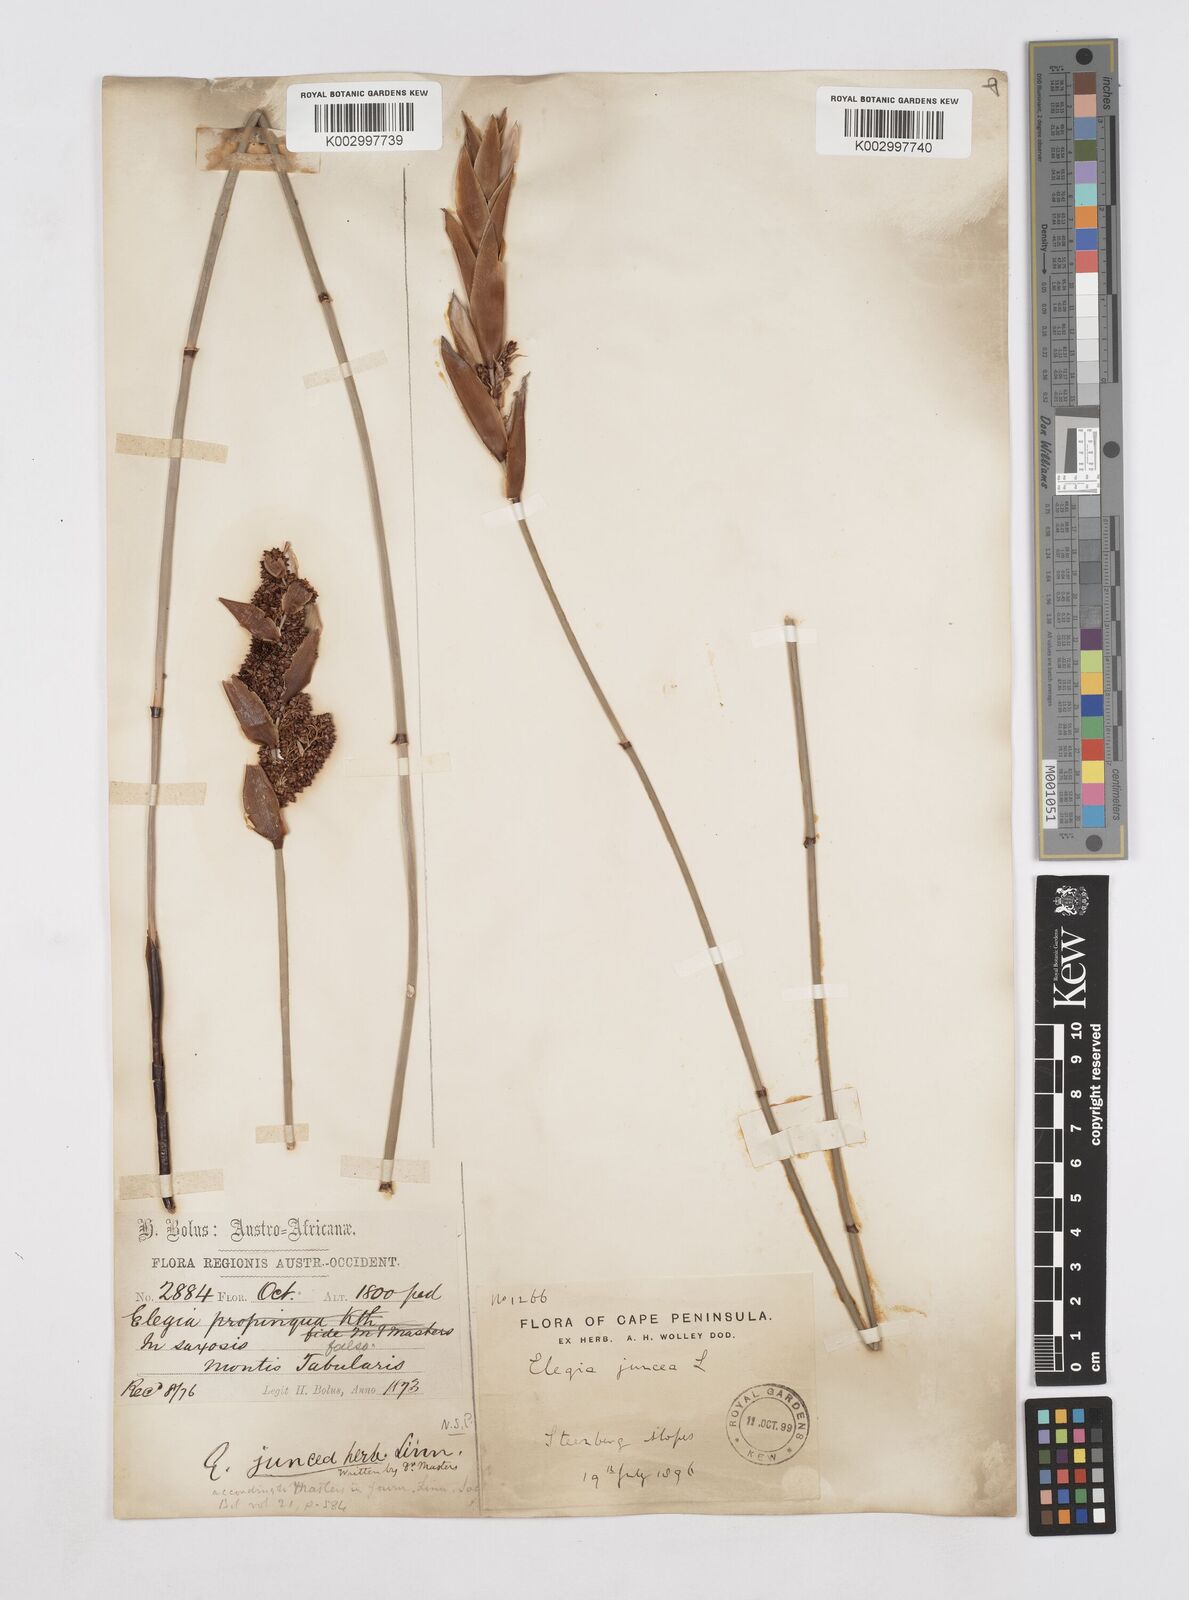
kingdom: Plantae
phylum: Tracheophyta
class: Liliopsida
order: Poales
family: Restionaceae
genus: Elegia
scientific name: Elegia juncea
